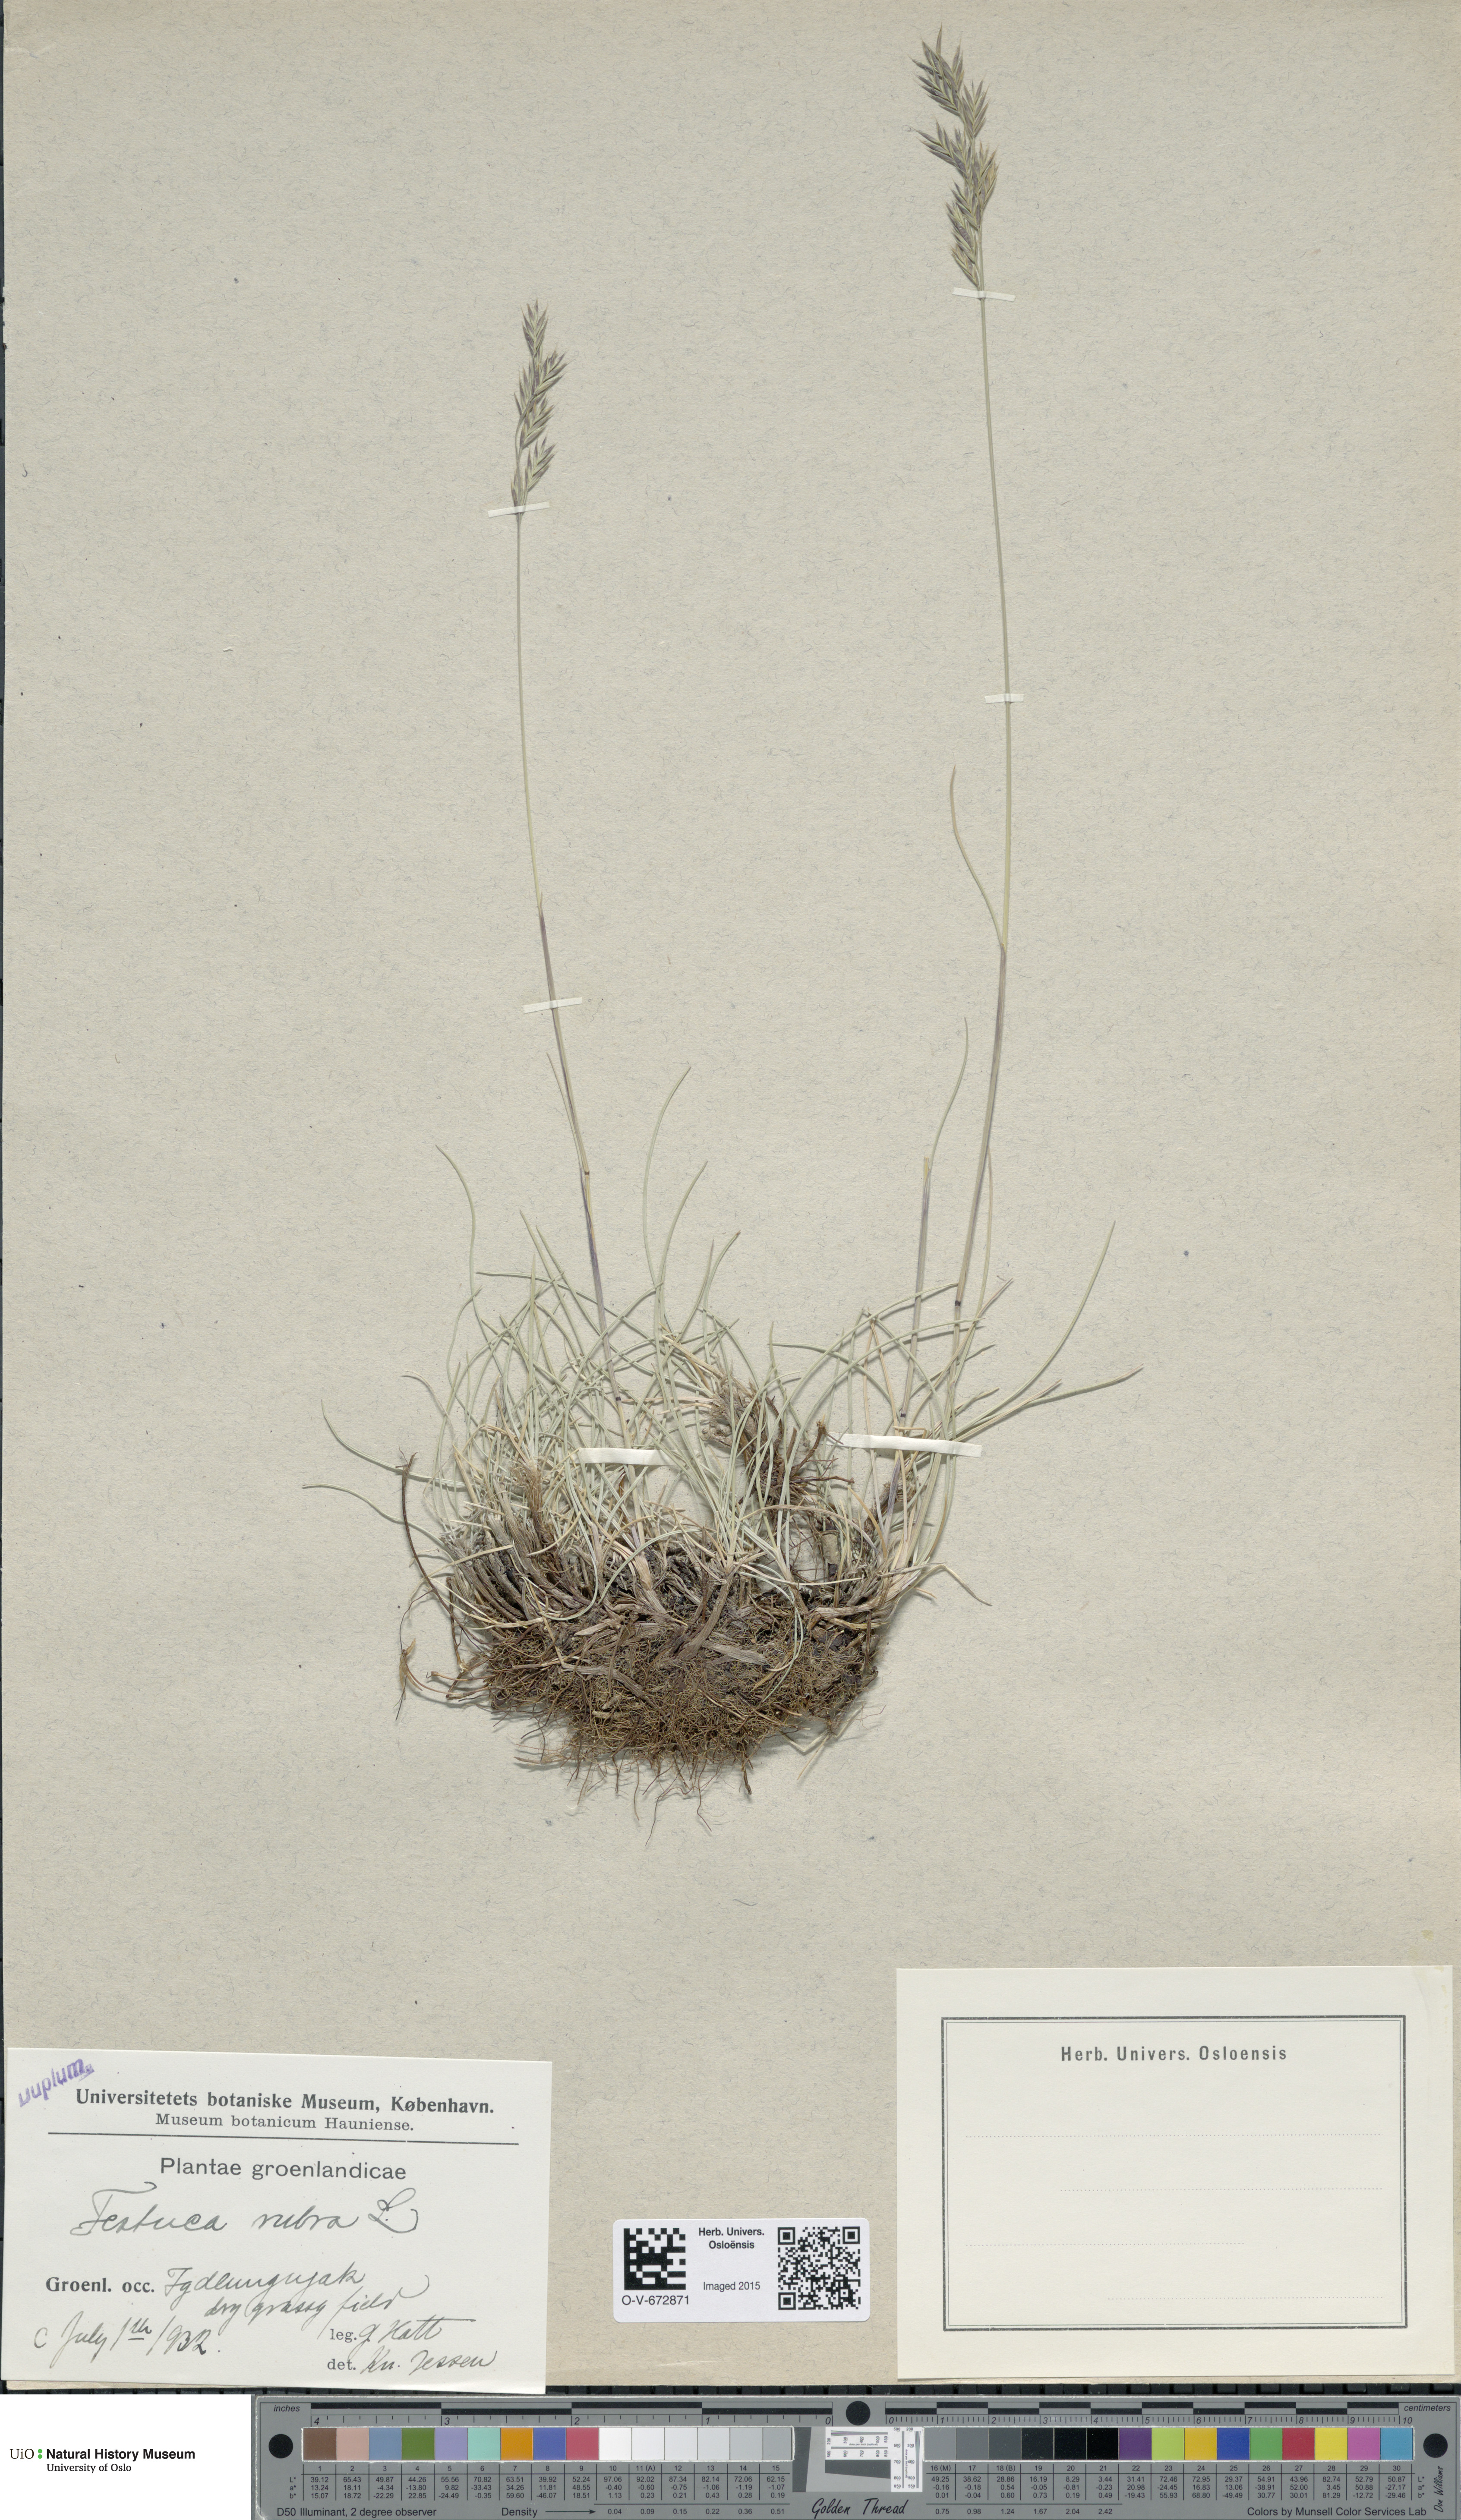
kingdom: Plantae
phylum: Tracheophyta
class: Liliopsida
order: Poales
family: Poaceae
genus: Festuca
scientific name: Festuca rubra
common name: Red fescue
